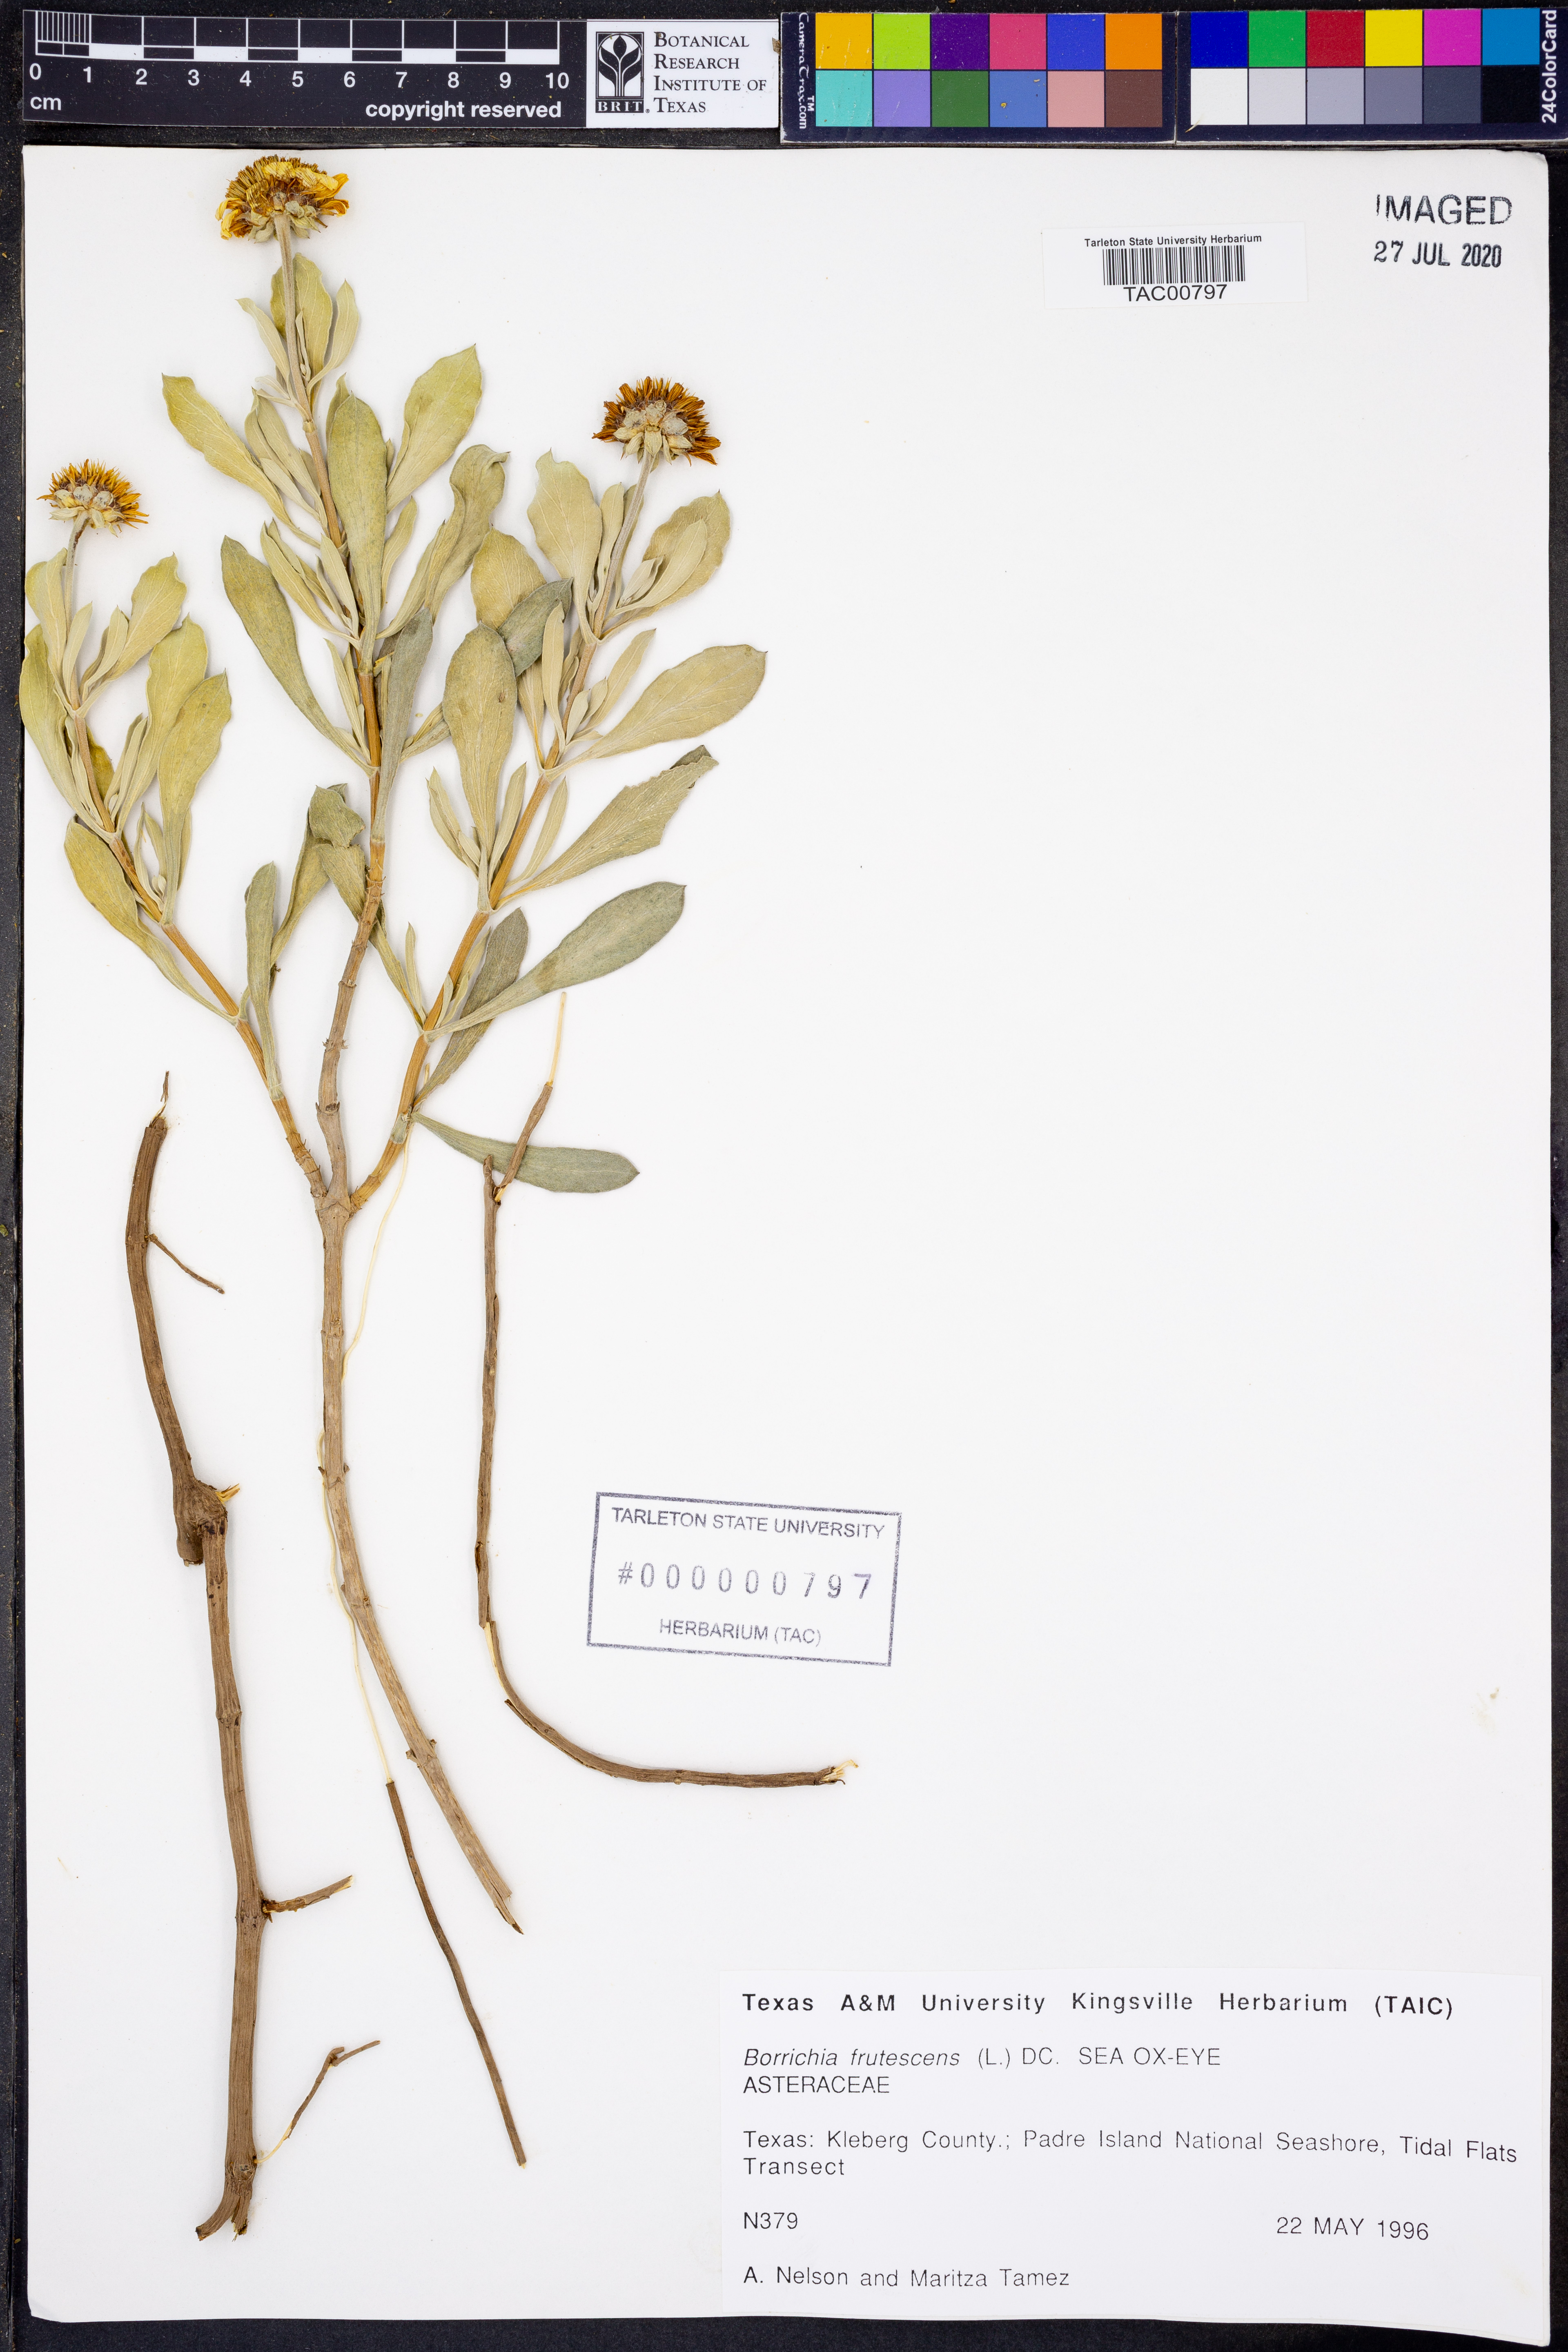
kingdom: Plantae
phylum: Tracheophyta
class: Magnoliopsida
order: Asterales
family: Asteraceae
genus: Borrichia
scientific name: Borrichia frutescens
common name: Sea oxeye
